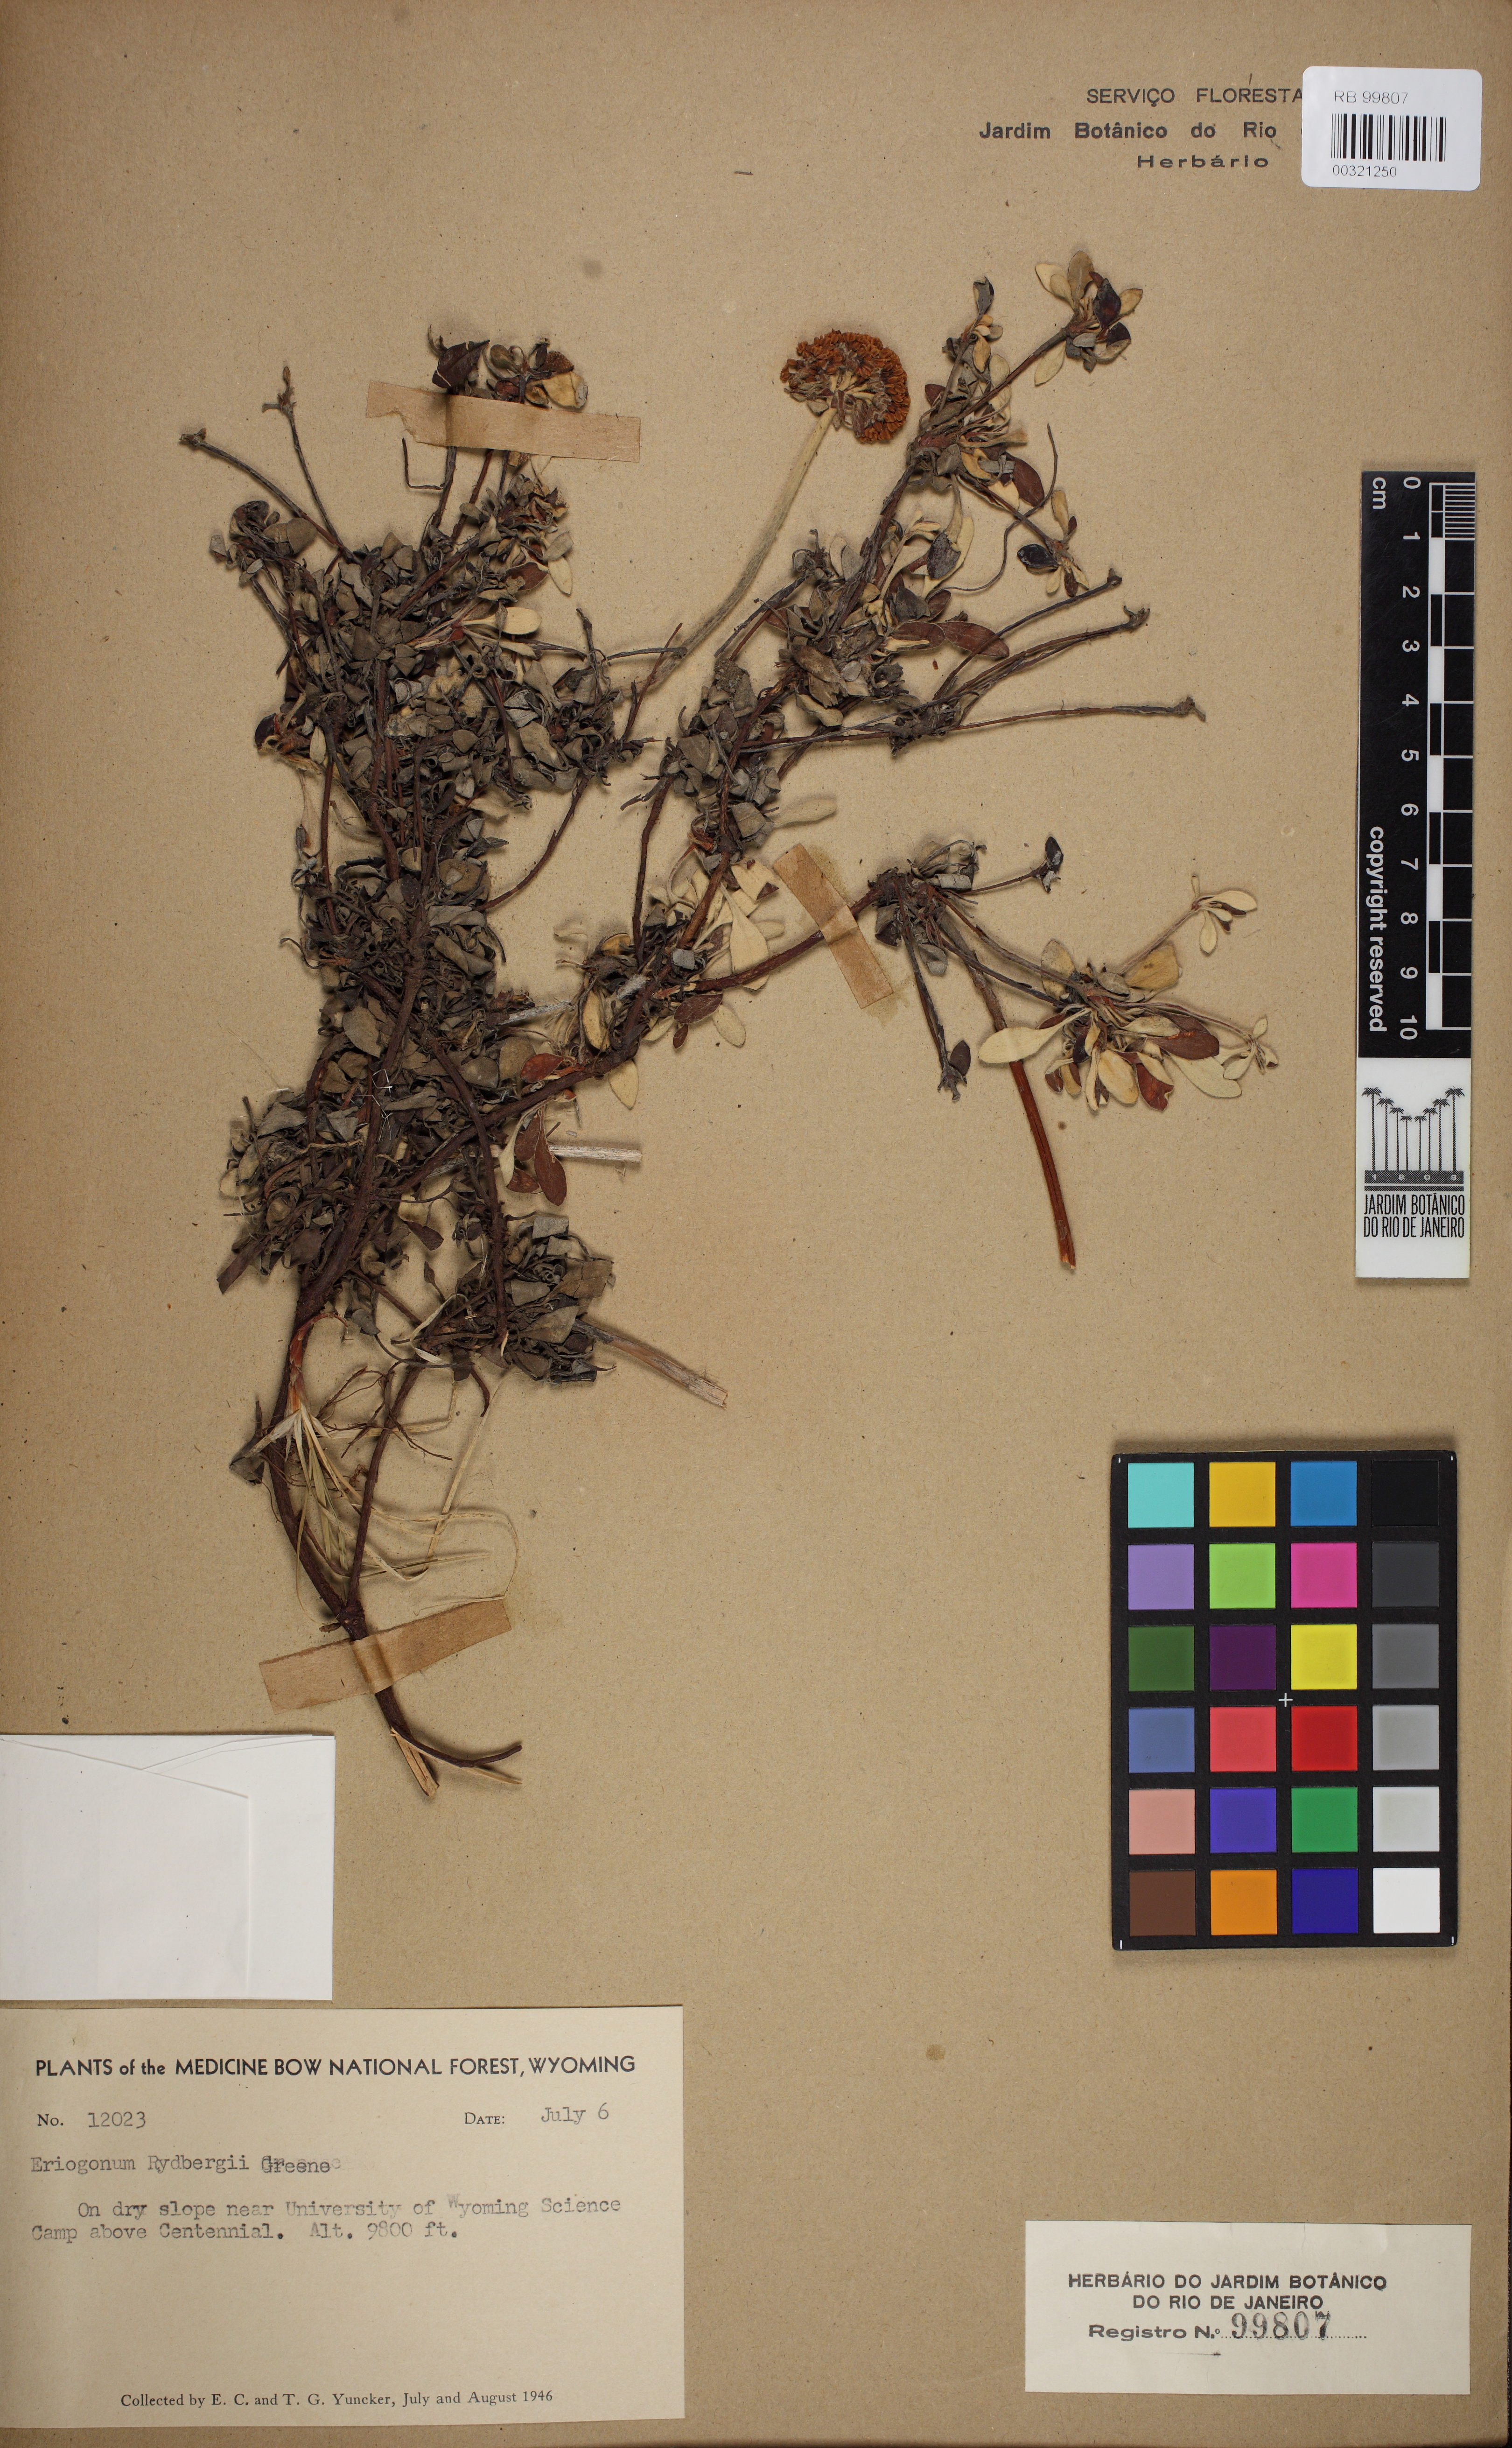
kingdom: Plantae
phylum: Tracheophyta
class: Magnoliopsida
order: Caryophyllales
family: Polygonaceae
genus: Eriogonum
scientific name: Eriogonum umbellatum
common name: Sulfur-buckwheat
